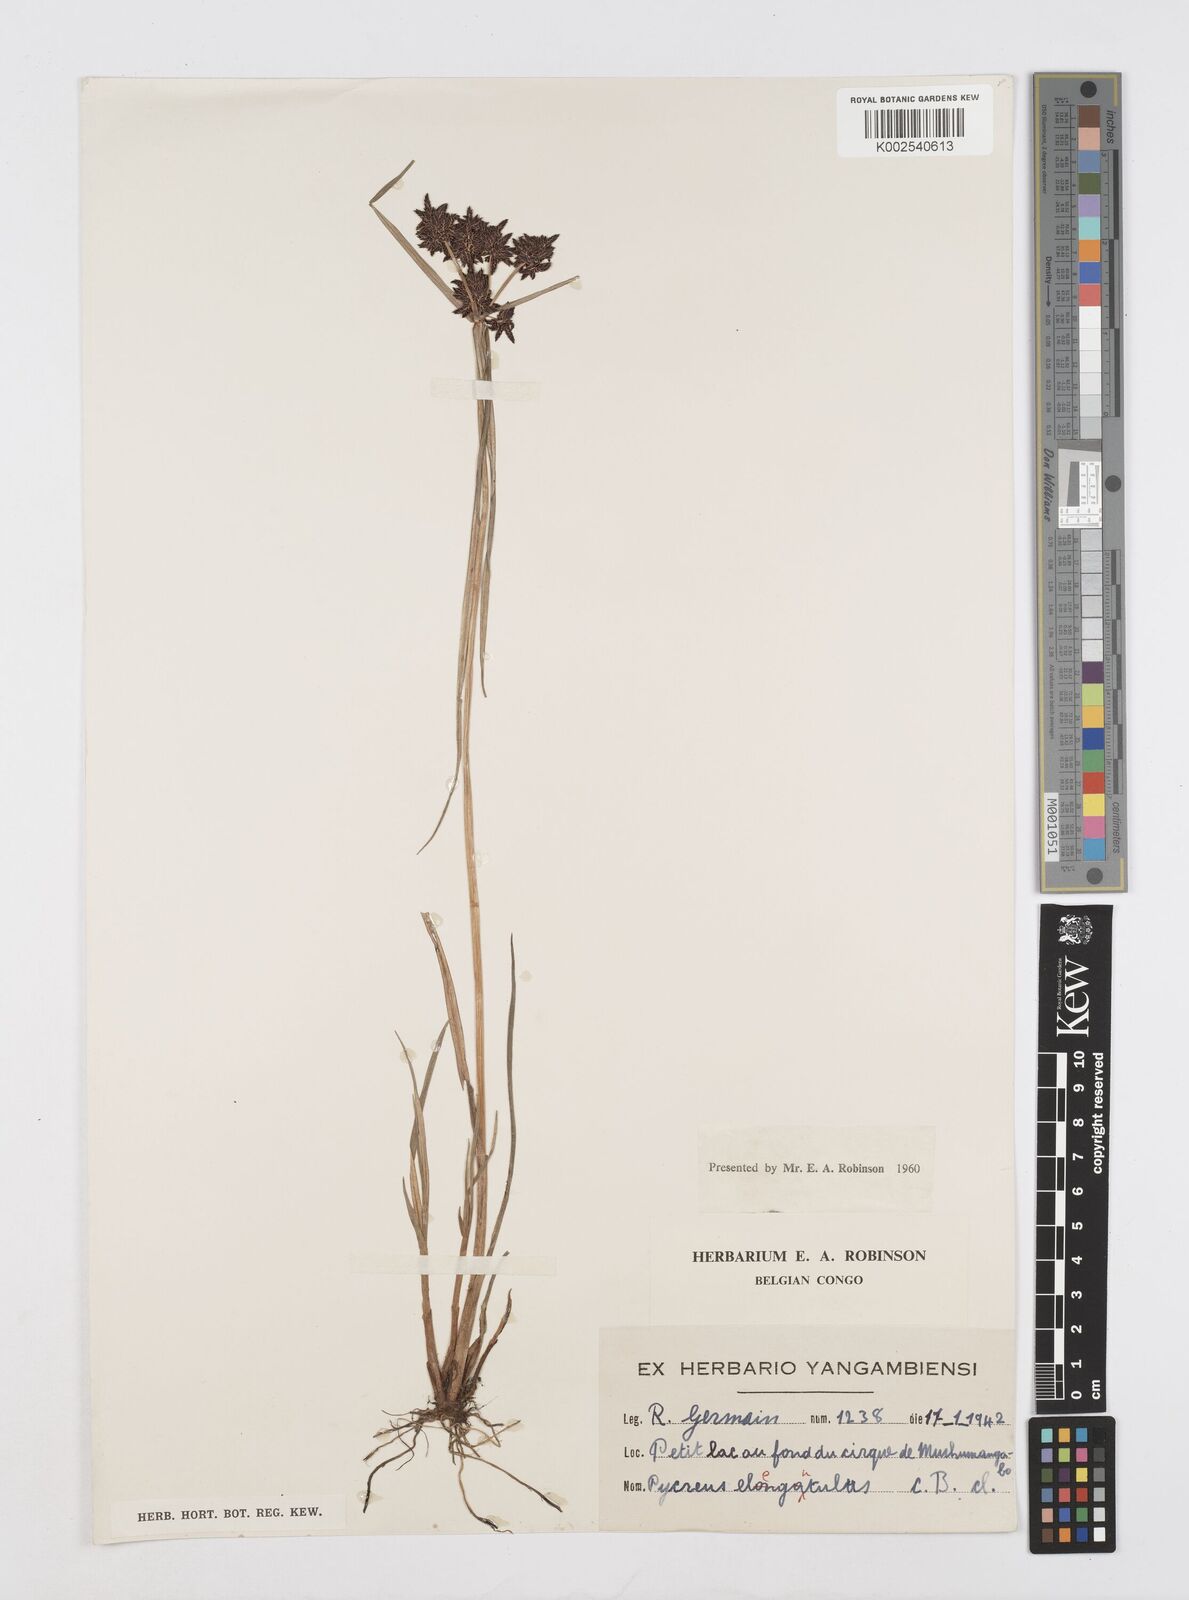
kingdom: Plantae
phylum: Tracheophyta
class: Liliopsida
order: Poales
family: Cyperaceae
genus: Cyperus
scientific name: Cyperus elegantulus
